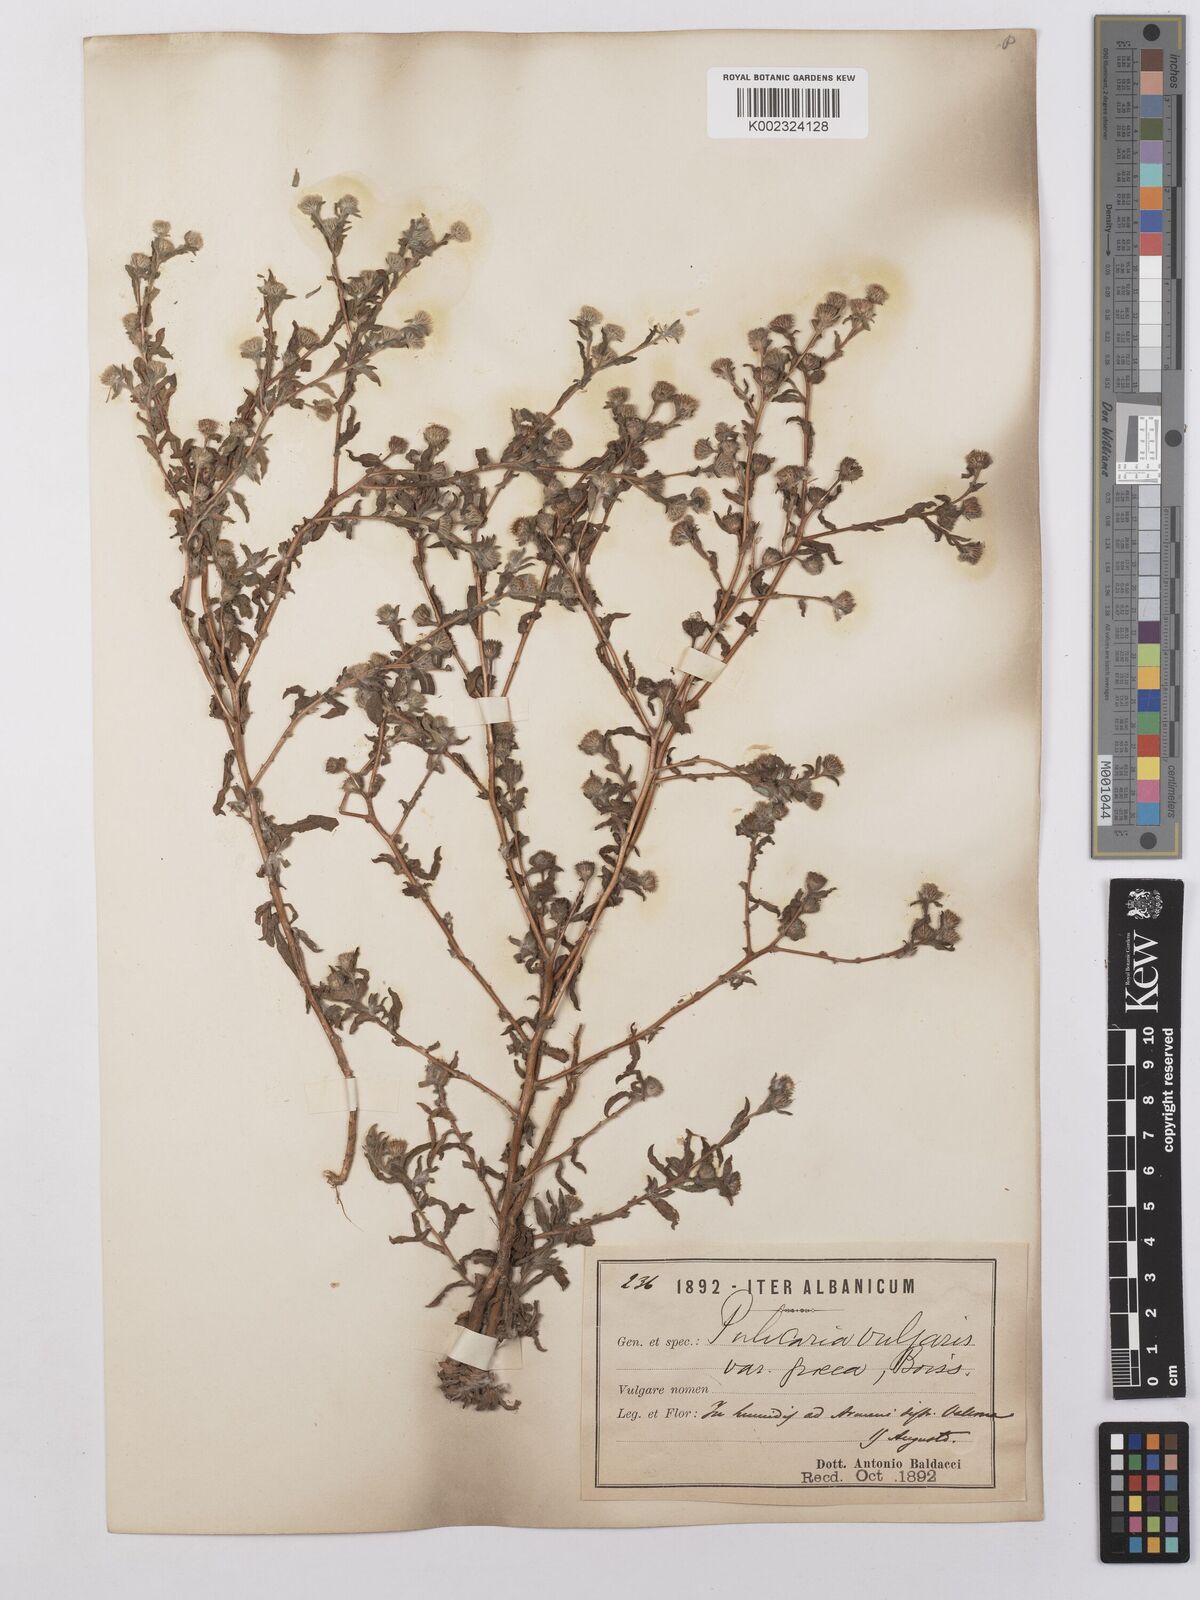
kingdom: Plantae
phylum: Tracheophyta
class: Magnoliopsida
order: Asterales
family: Asteraceae
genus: Pulicaria
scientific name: Pulicaria vulgaris
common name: Small fleabane
